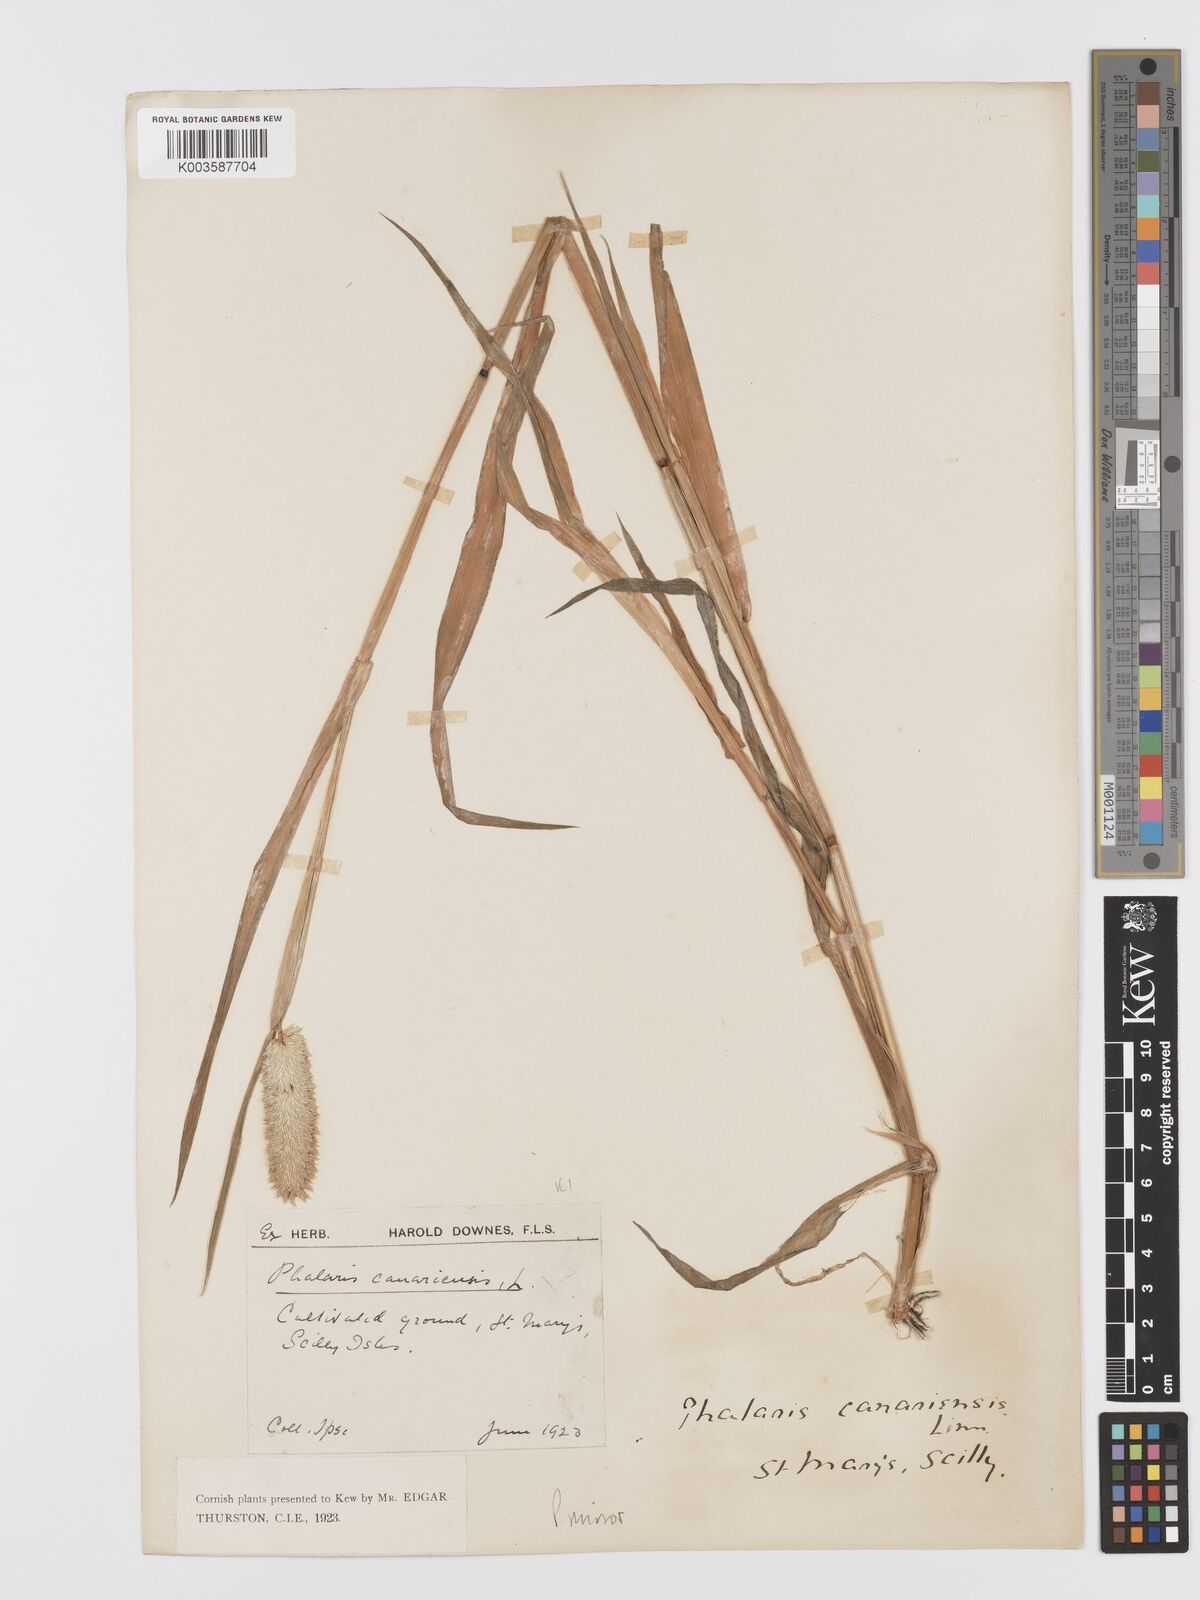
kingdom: Plantae
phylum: Tracheophyta
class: Liliopsida
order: Poales
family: Poaceae
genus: Phalaris
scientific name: Phalaris minor
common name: Littleseed canarygrass
